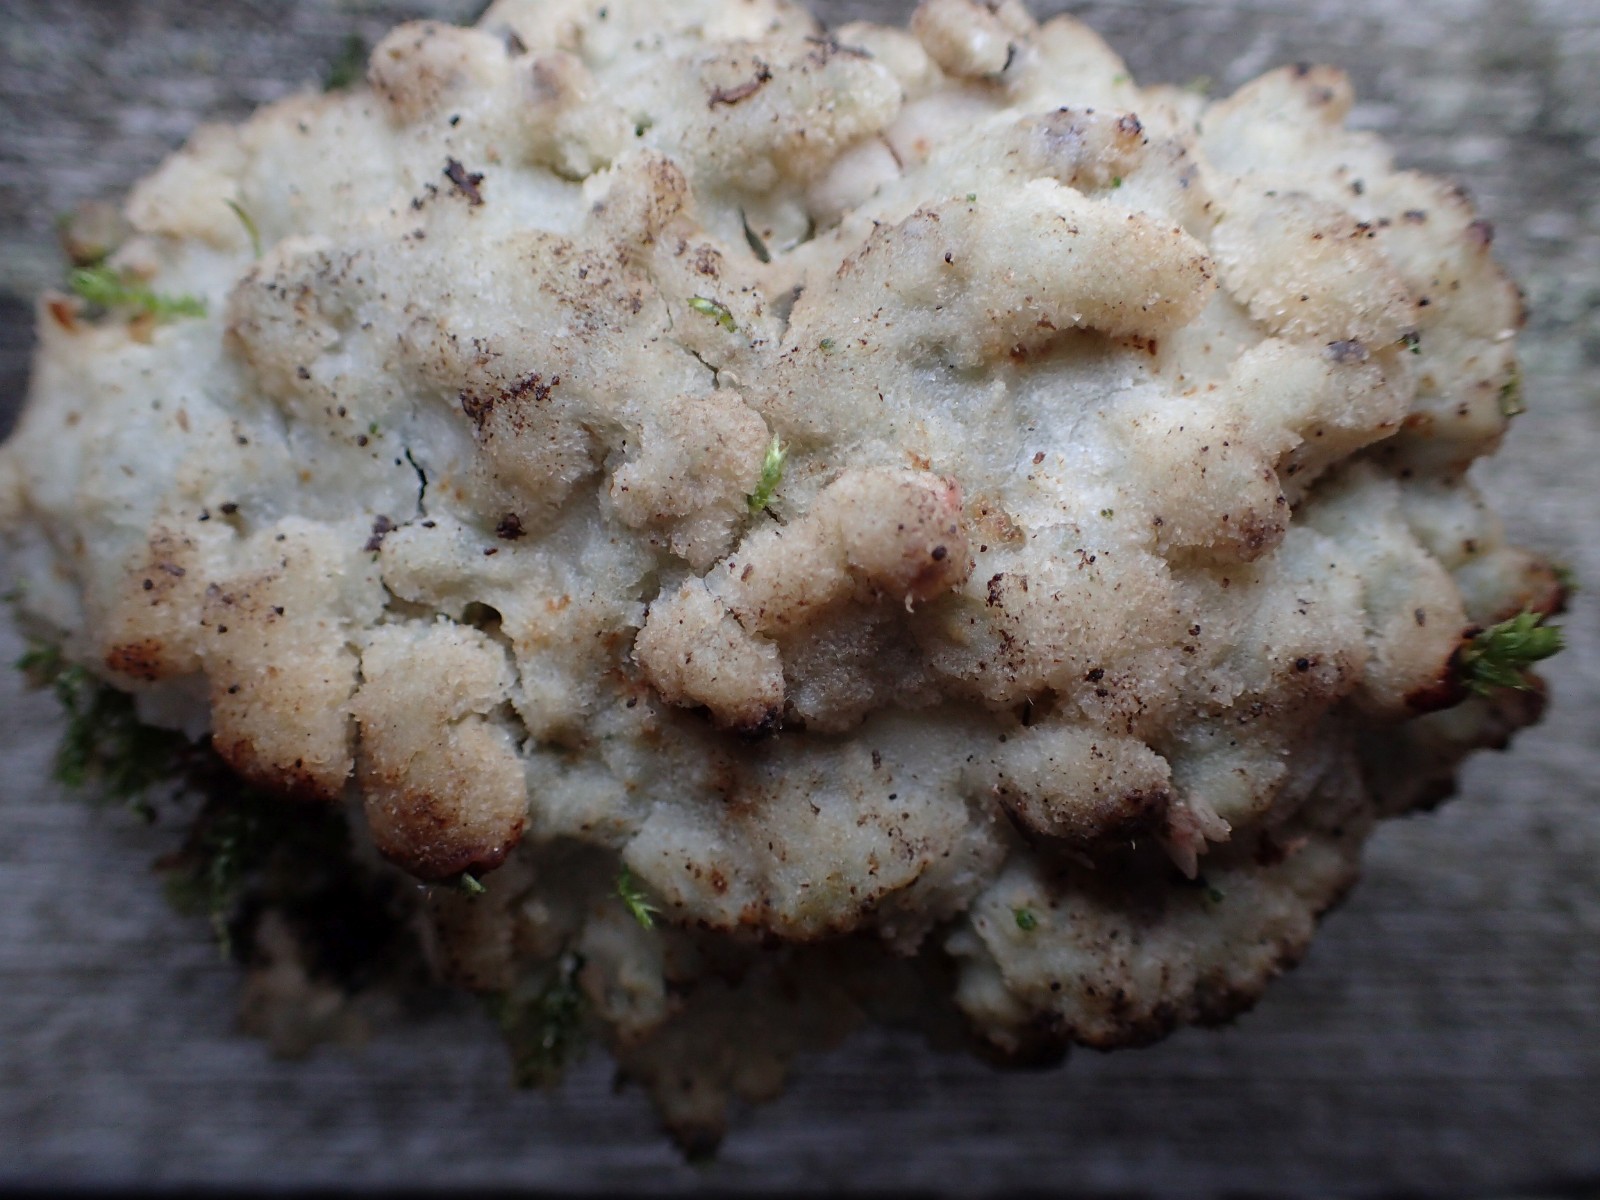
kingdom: Fungi
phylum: Basidiomycota
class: Agaricomycetes
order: Polyporales
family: Meruliaceae
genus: Physisporinus
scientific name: Physisporinus
